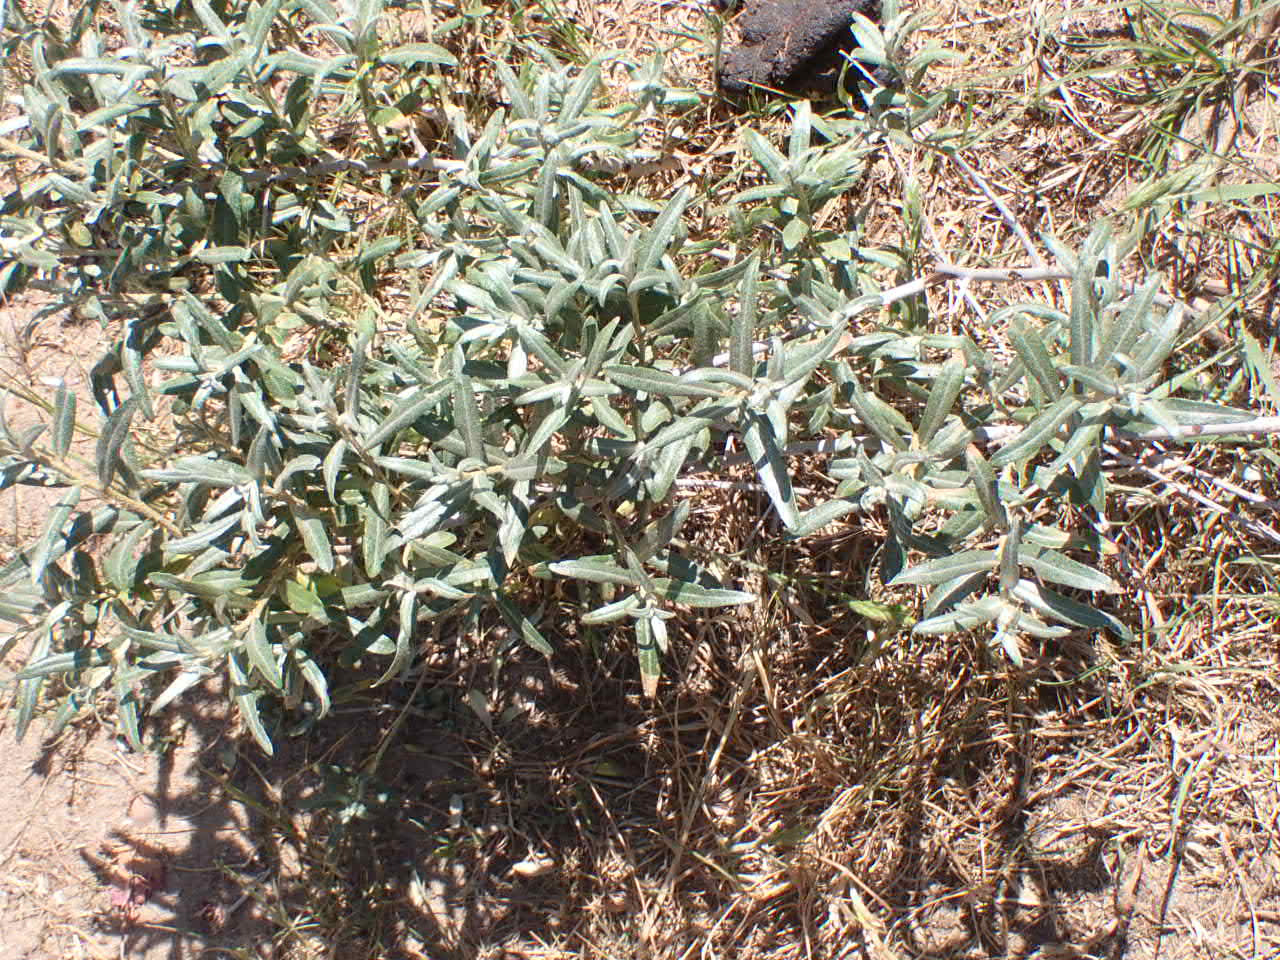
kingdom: Plantae
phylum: Tracheophyta
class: Magnoliopsida
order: Rosales
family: Elaeagnaceae
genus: Hippophae
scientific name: Hippophae rhamnoides
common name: Havtorn
